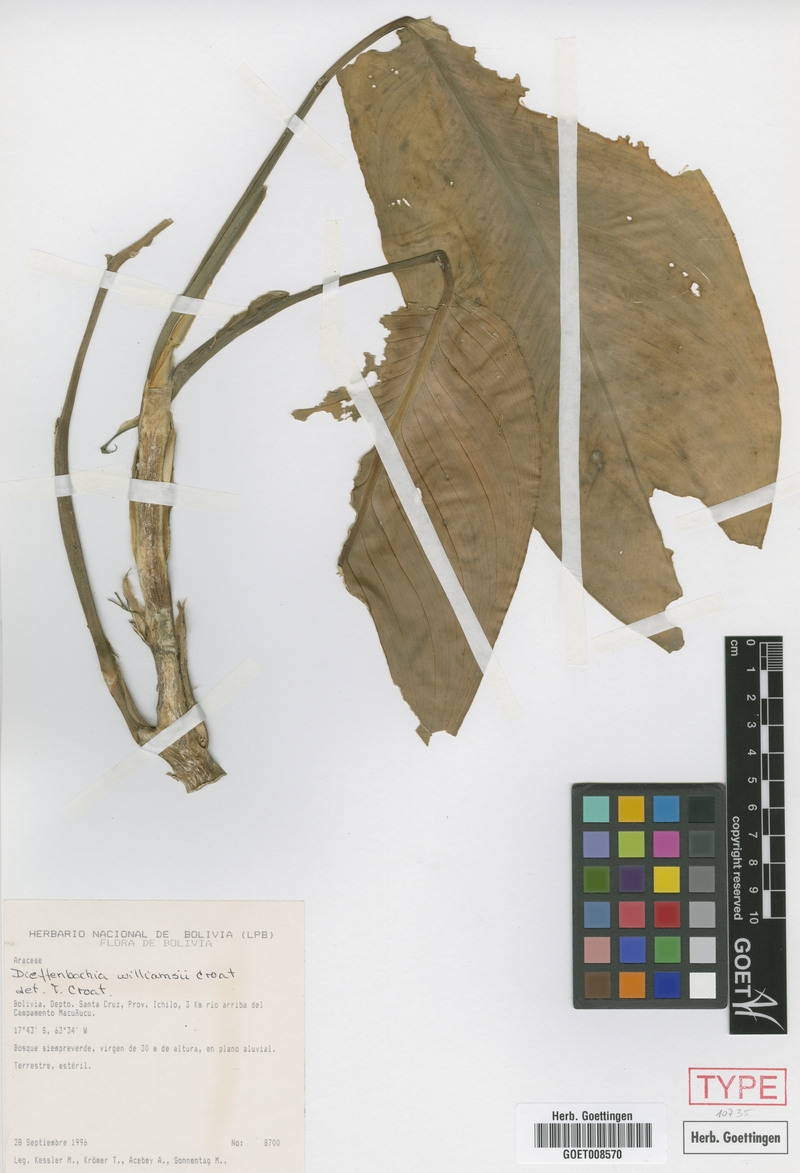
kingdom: Plantae
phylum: Tracheophyta
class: Liliopsida
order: Alismatales
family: Araceae
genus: Dieffenbachia
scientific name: Dieffenbachia williamsii
